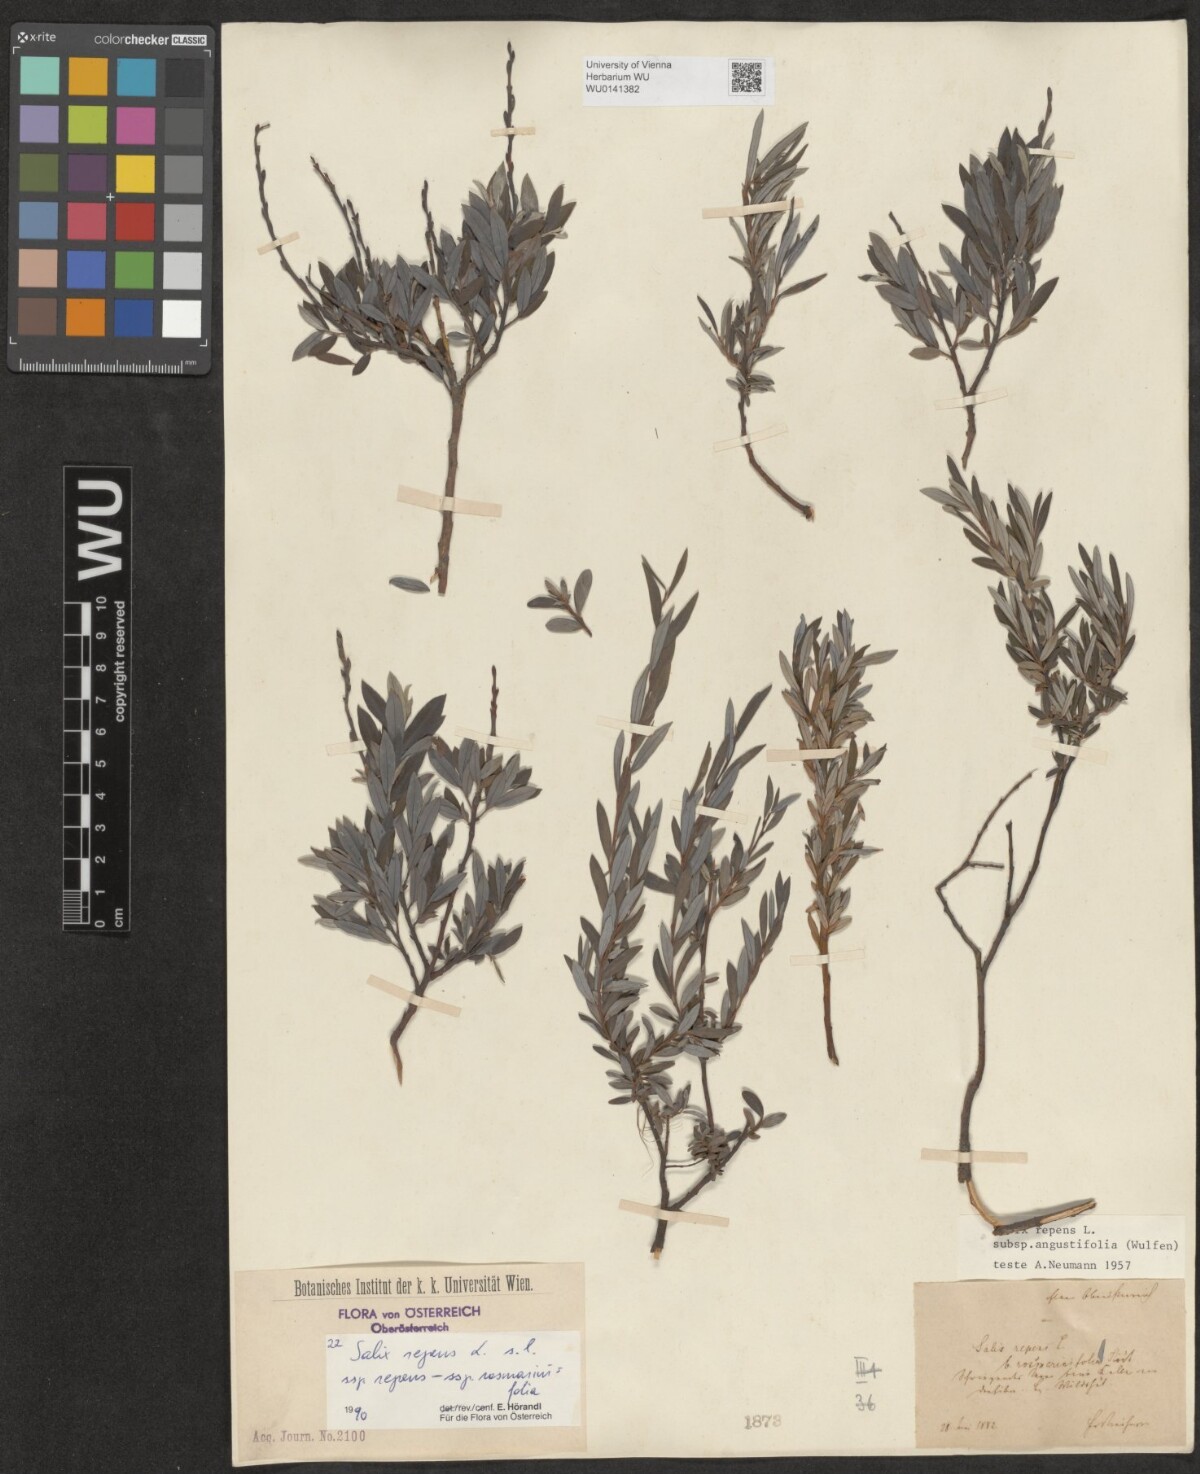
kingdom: Plantae
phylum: Tracheophyta
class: Magnoliopsida
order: Malpighiales
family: Salicaceae
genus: Salix
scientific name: Salix repens
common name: Creeping willow
